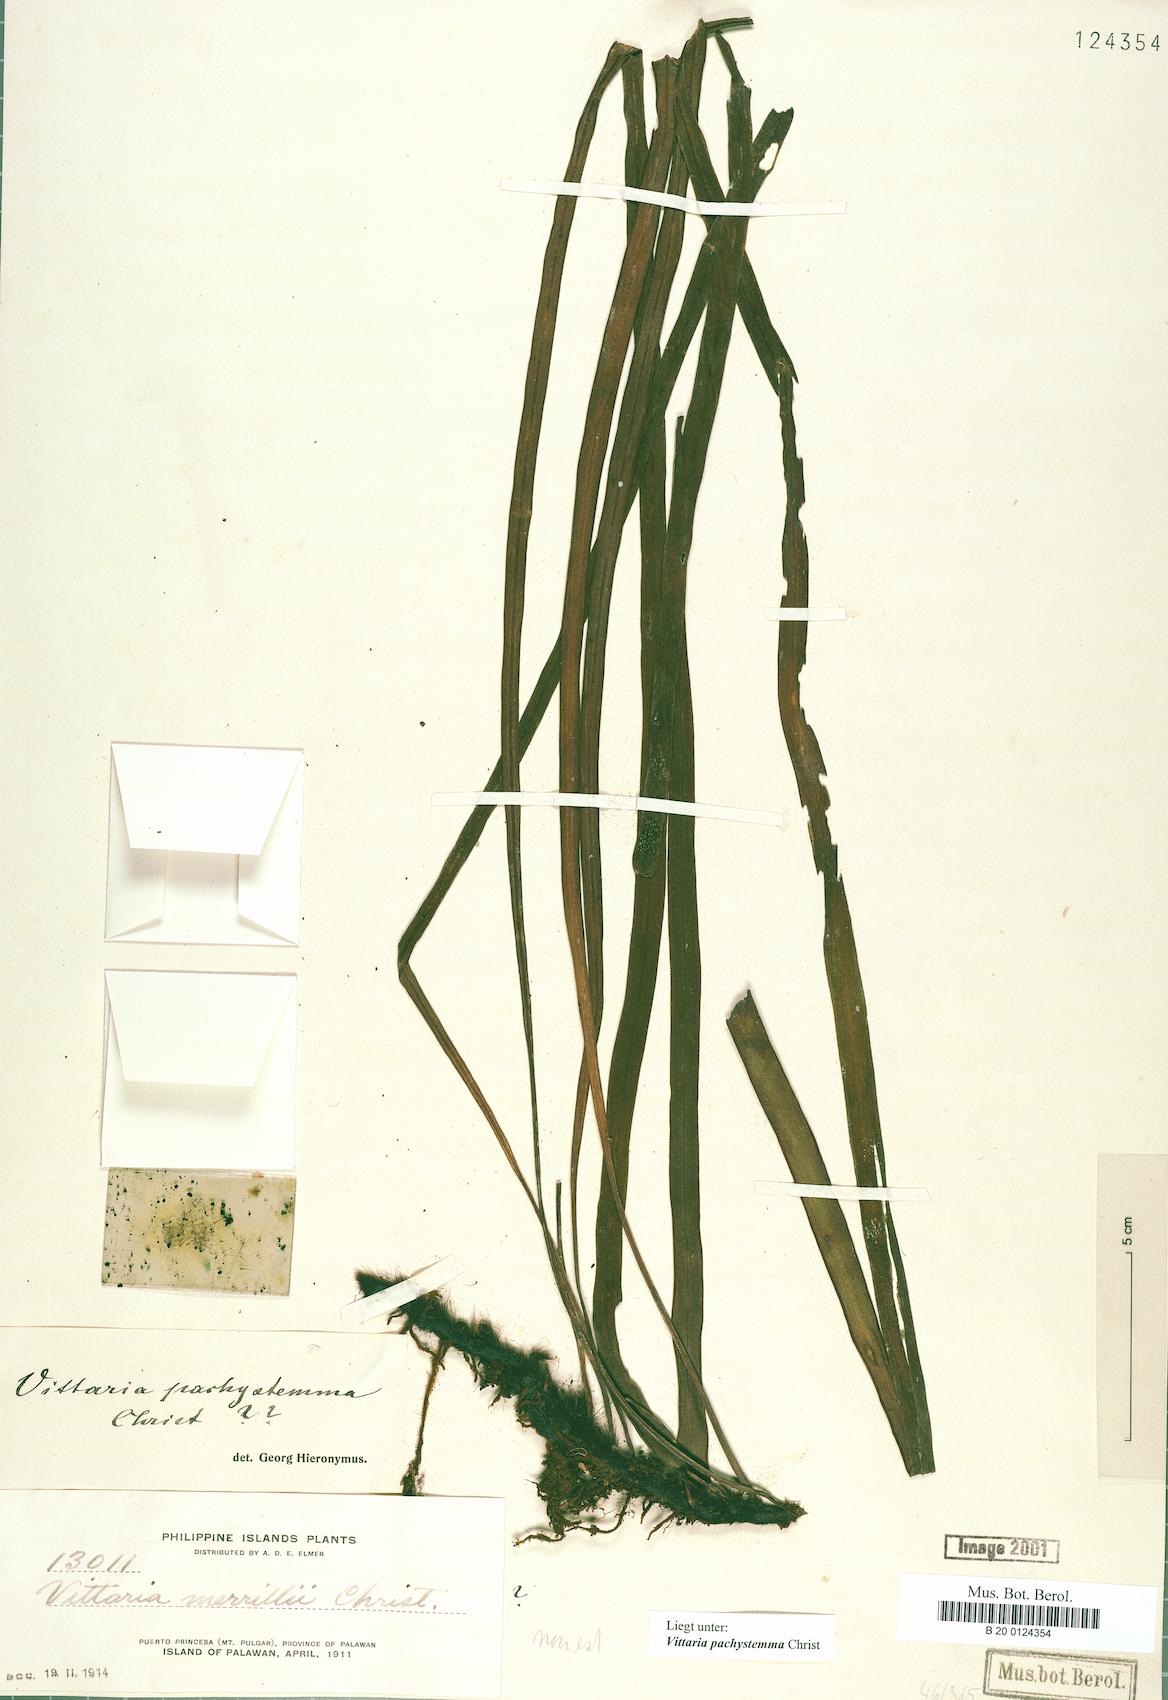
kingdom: Plantae
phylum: Tracheophyta
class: Polypodiopsida
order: Polypodiales
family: Pteridaceae
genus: Haplopteris
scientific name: Haplopteris elongata
